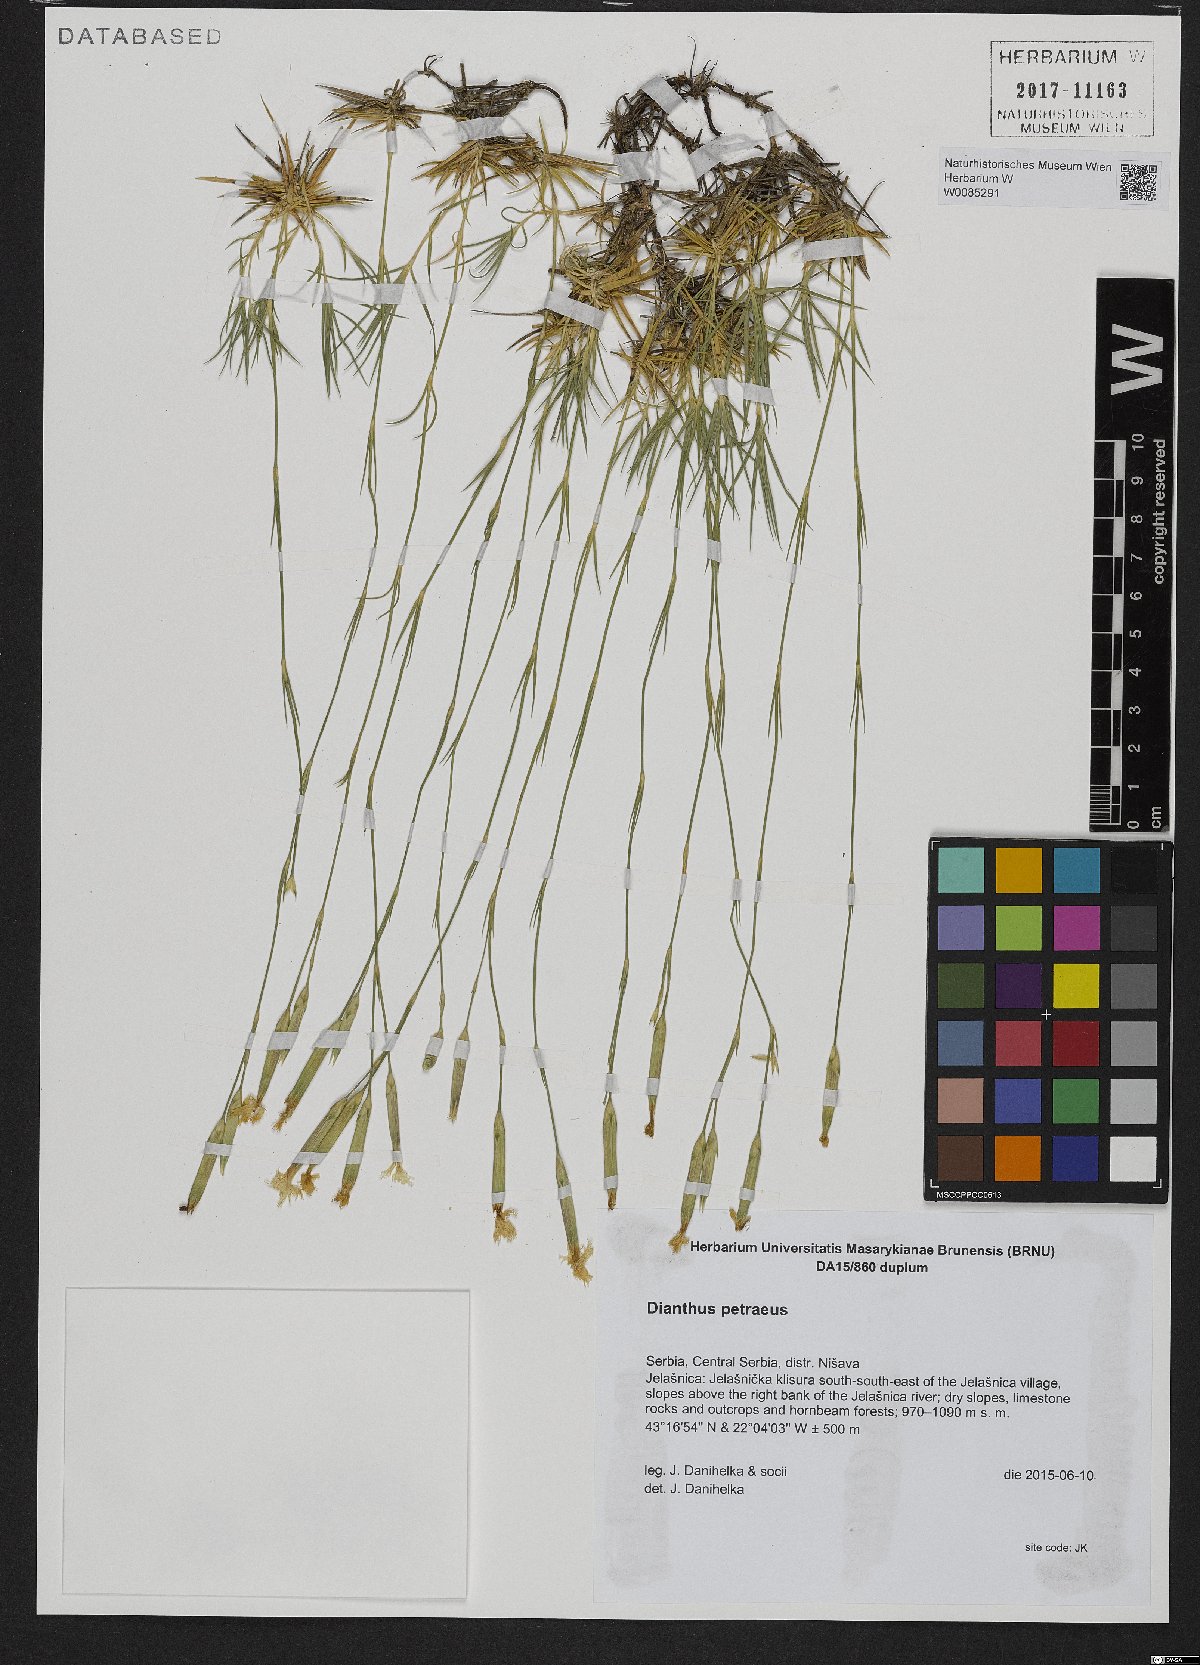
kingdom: Plantae
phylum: Tracheophyta
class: Magnoliopsida
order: Caryophyllales
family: Caryophyllaceae
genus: Dianthus
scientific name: Dianthus petraeus
